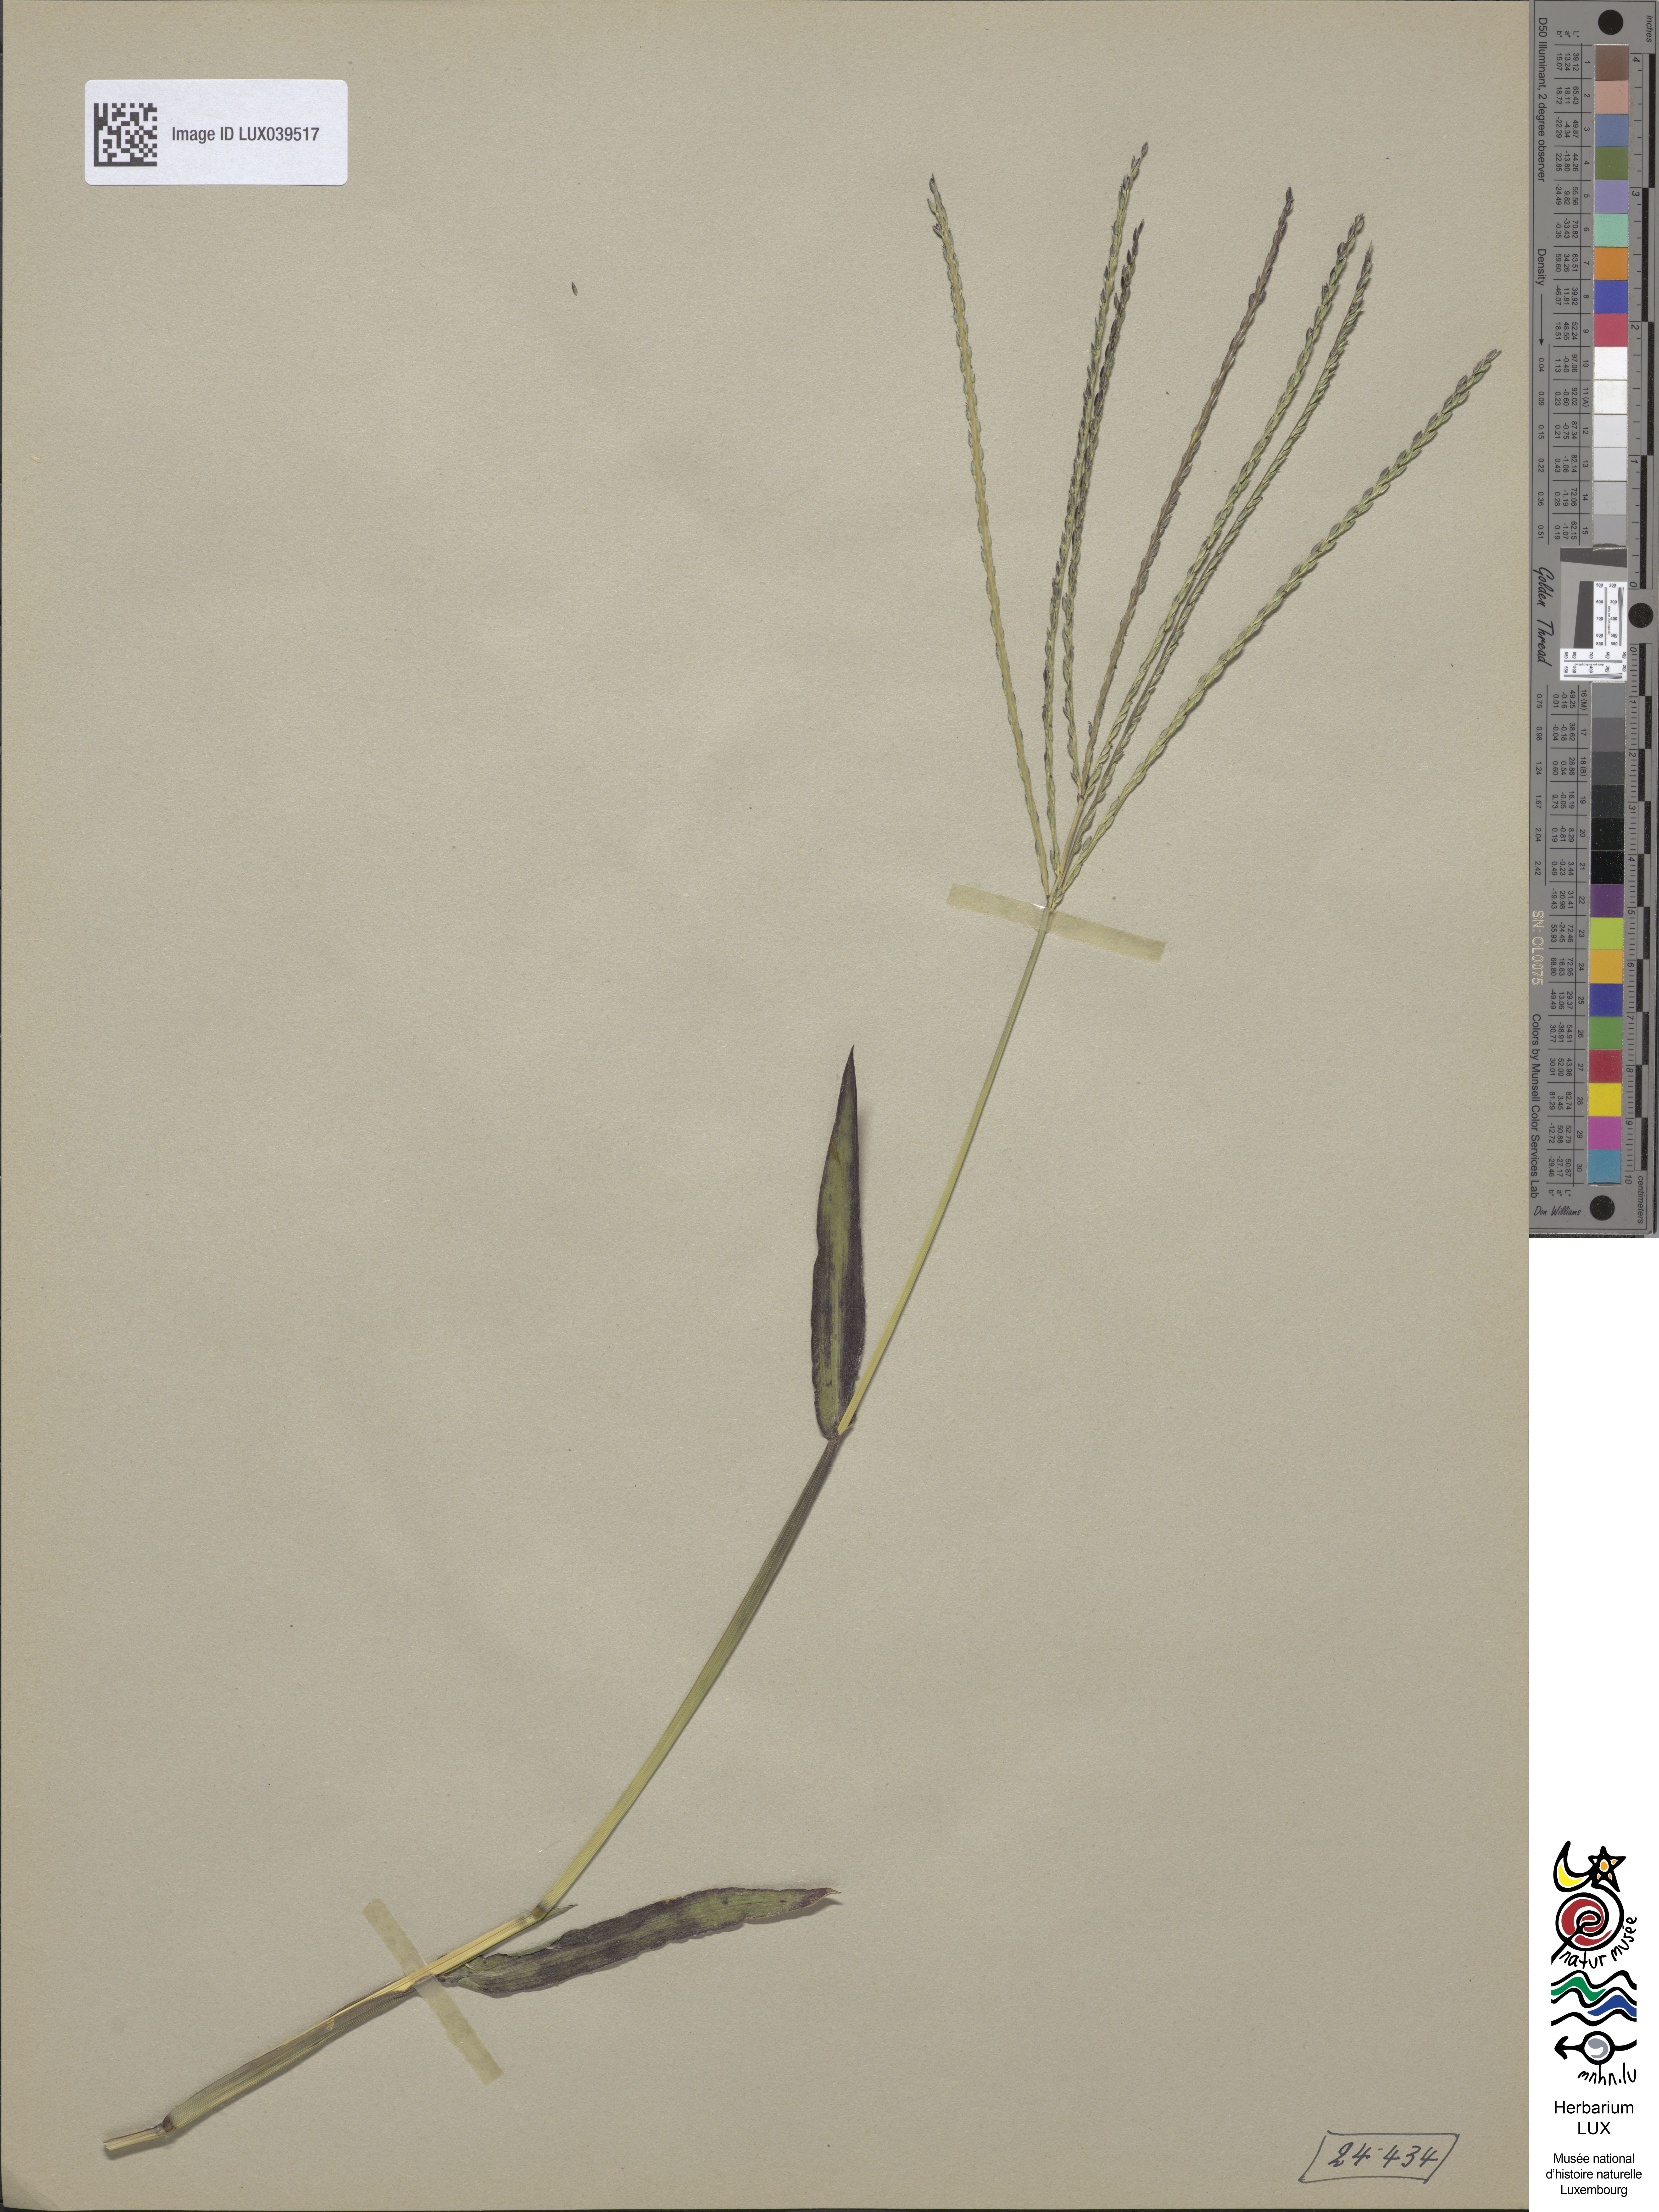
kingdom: Plantae
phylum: Tracheophyta
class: Liliopsida
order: Poales
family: Poaceae
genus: Digitaria
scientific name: Digitaria sanguinalis
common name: Hairy crabgrass
